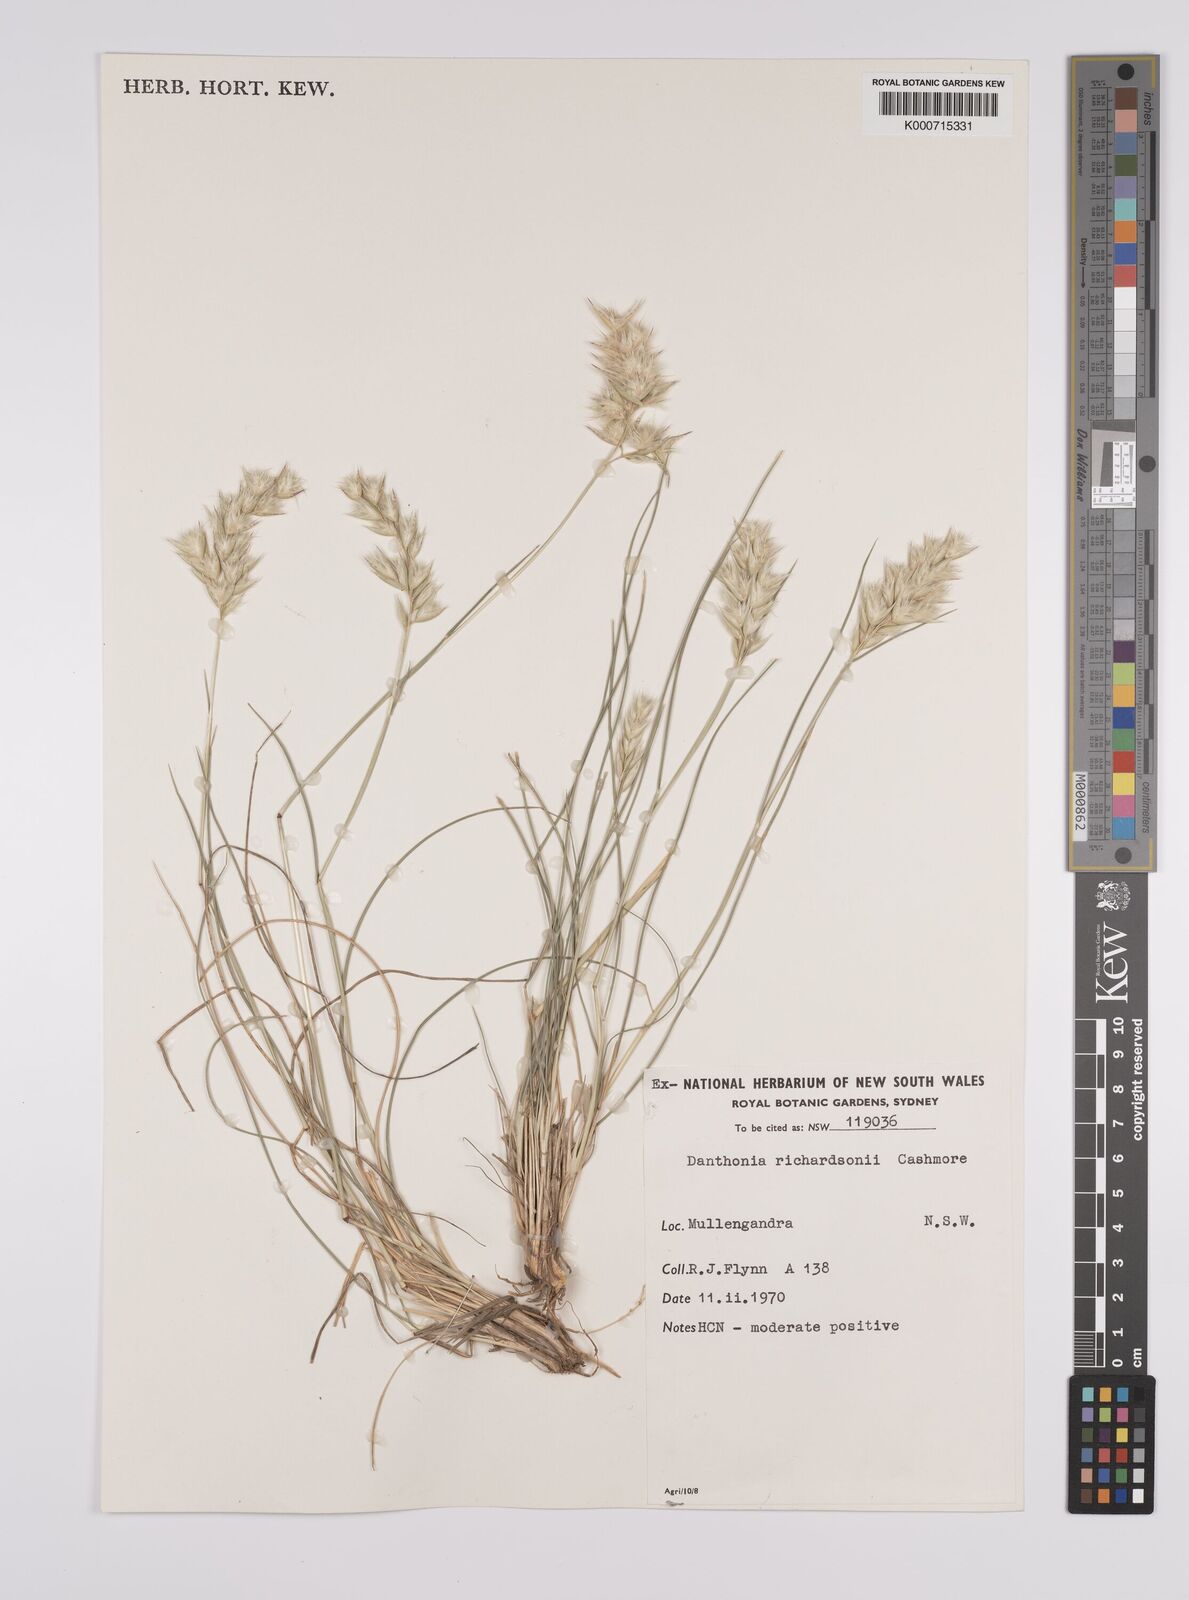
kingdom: Plantae
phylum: Tracheophyta
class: Liliopsida
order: Poales
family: Poaceae
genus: Rytidosperma
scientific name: Rytidosperma richardsonii
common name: Straw wallaby-grass
